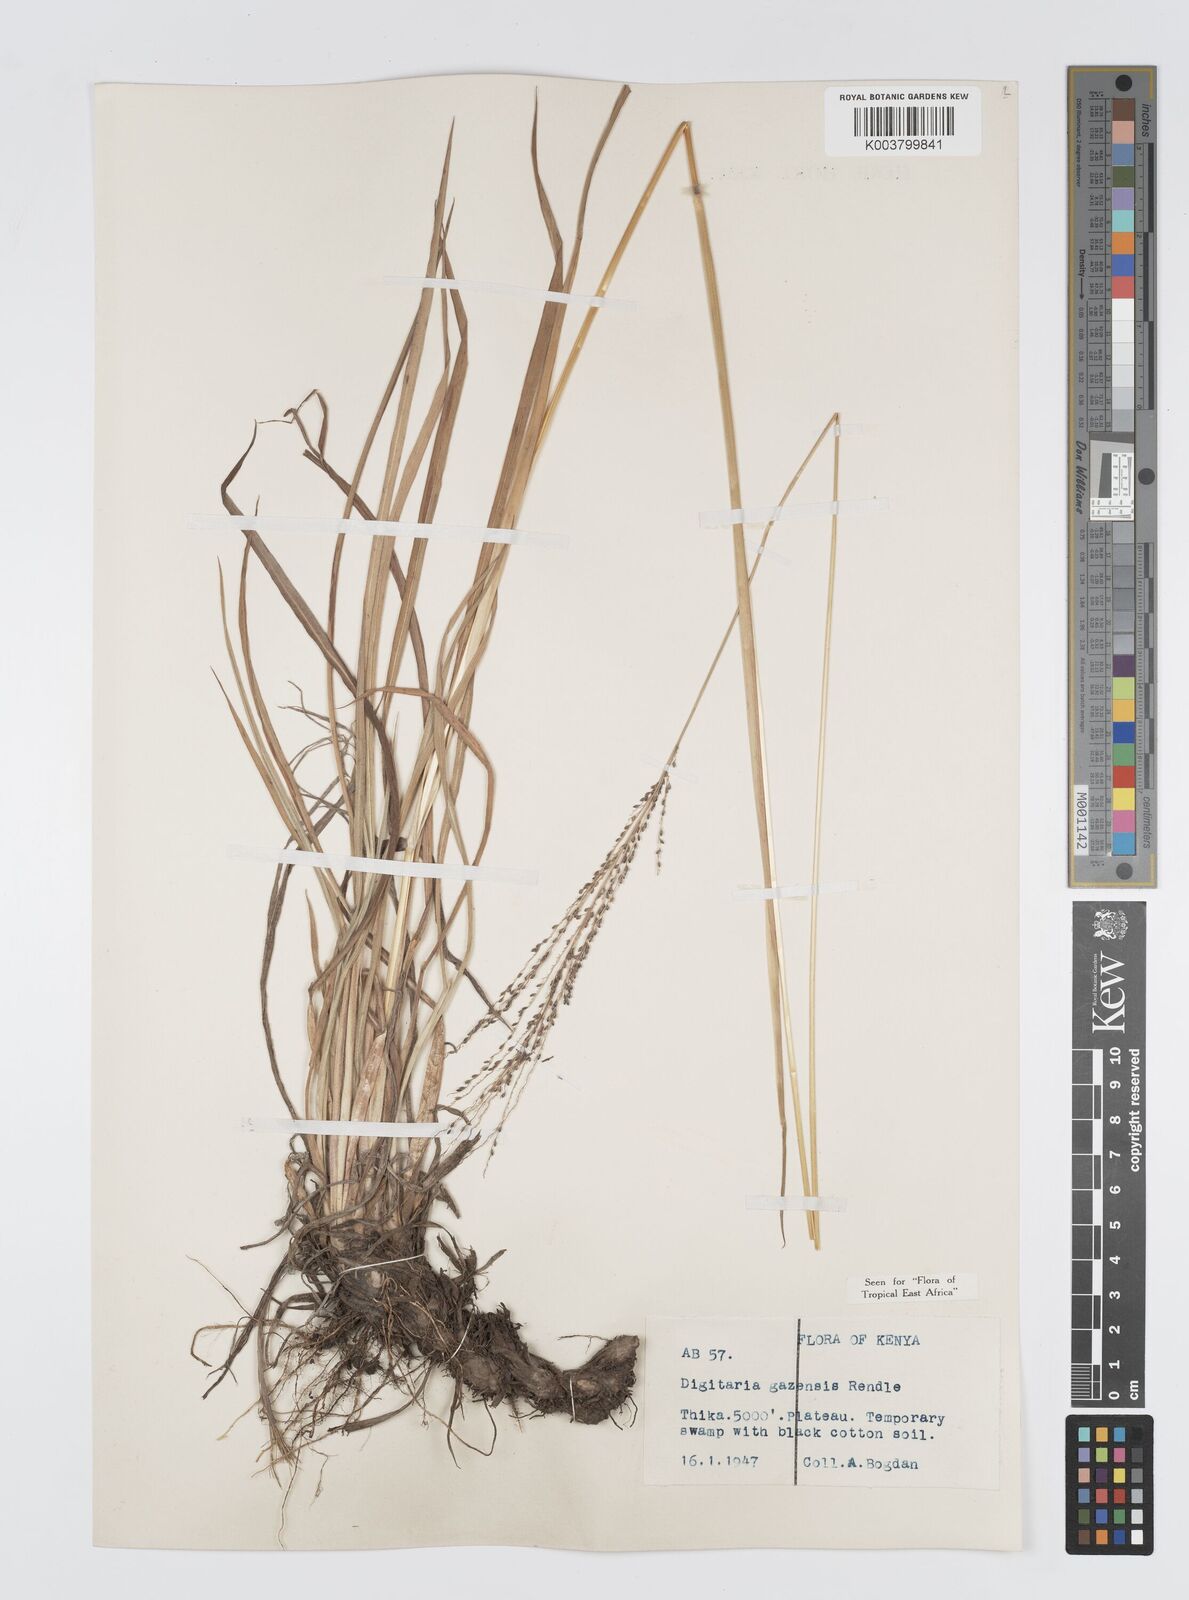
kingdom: Plantae
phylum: Tracheophyta
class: Liliopsida
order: Poales
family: Poaceae
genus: Digitaria
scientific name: Digitaria gazensis
